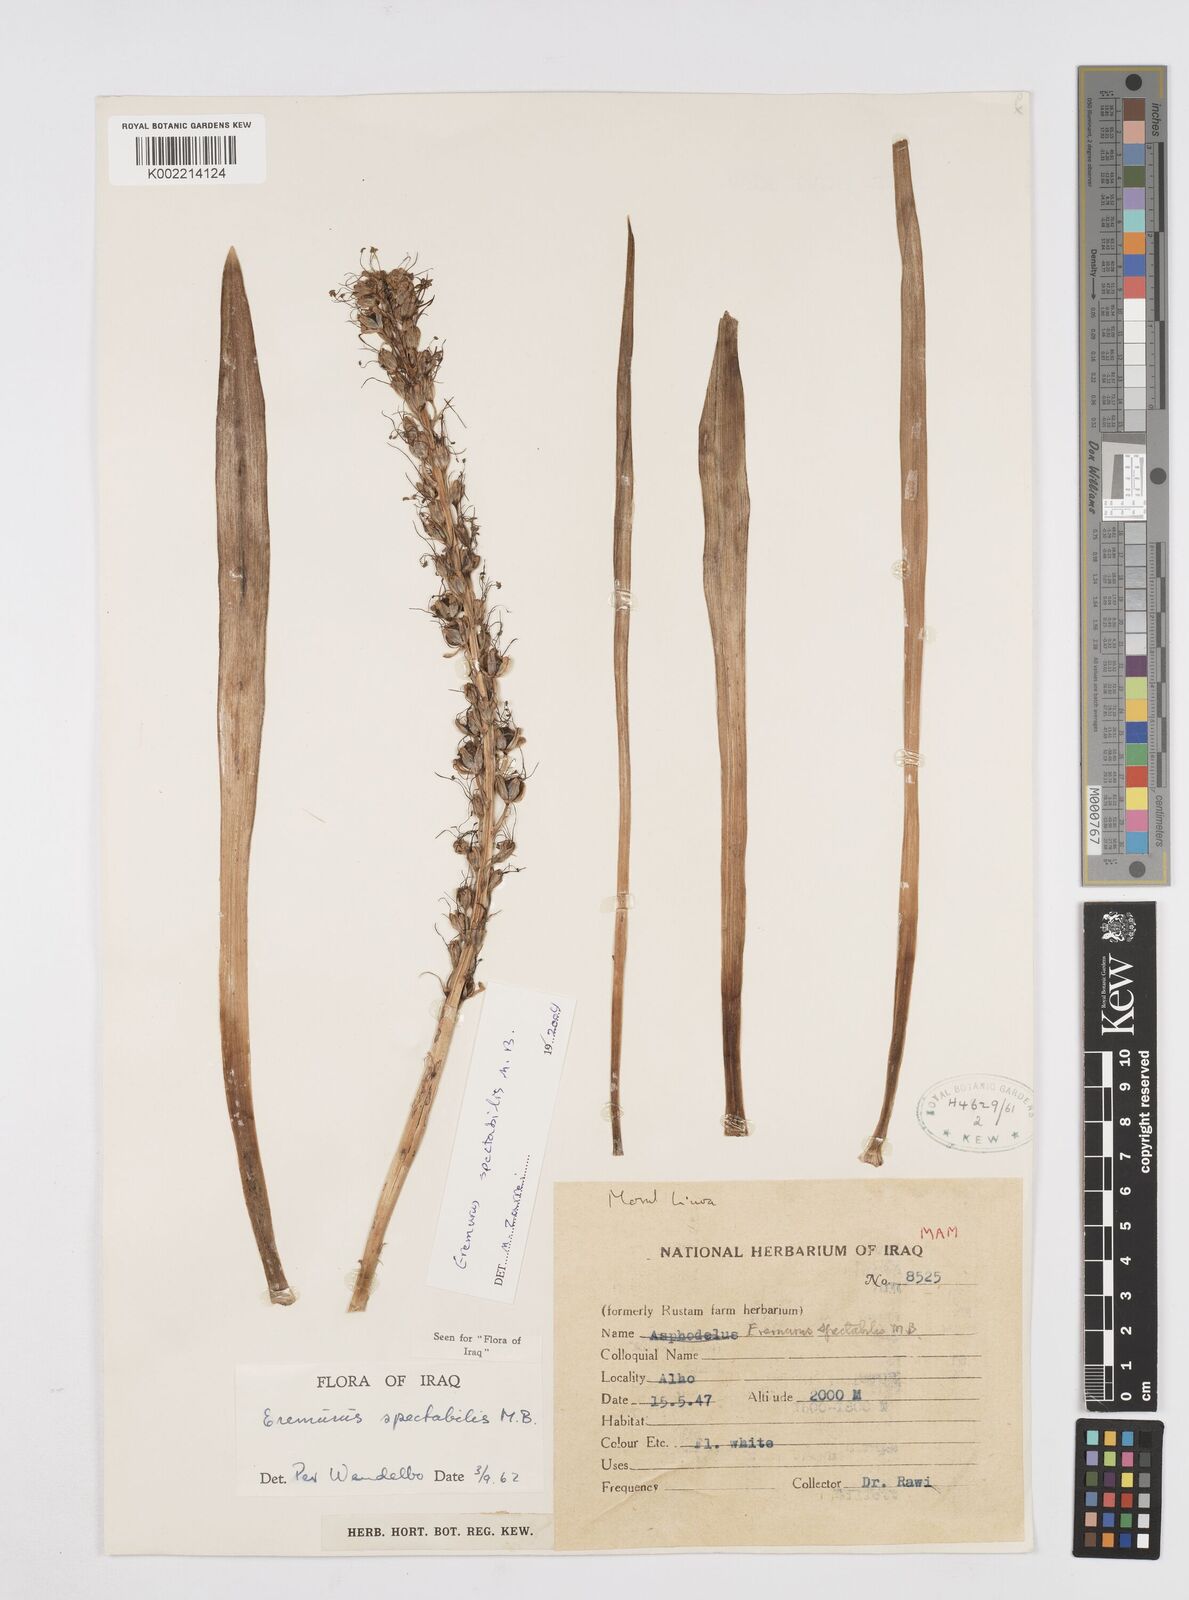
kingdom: Plantae
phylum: Tracheophyta
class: Liliopsida
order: Asparagales
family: Asphodelaceae
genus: Eremurus
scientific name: Eremurus spectabilis
